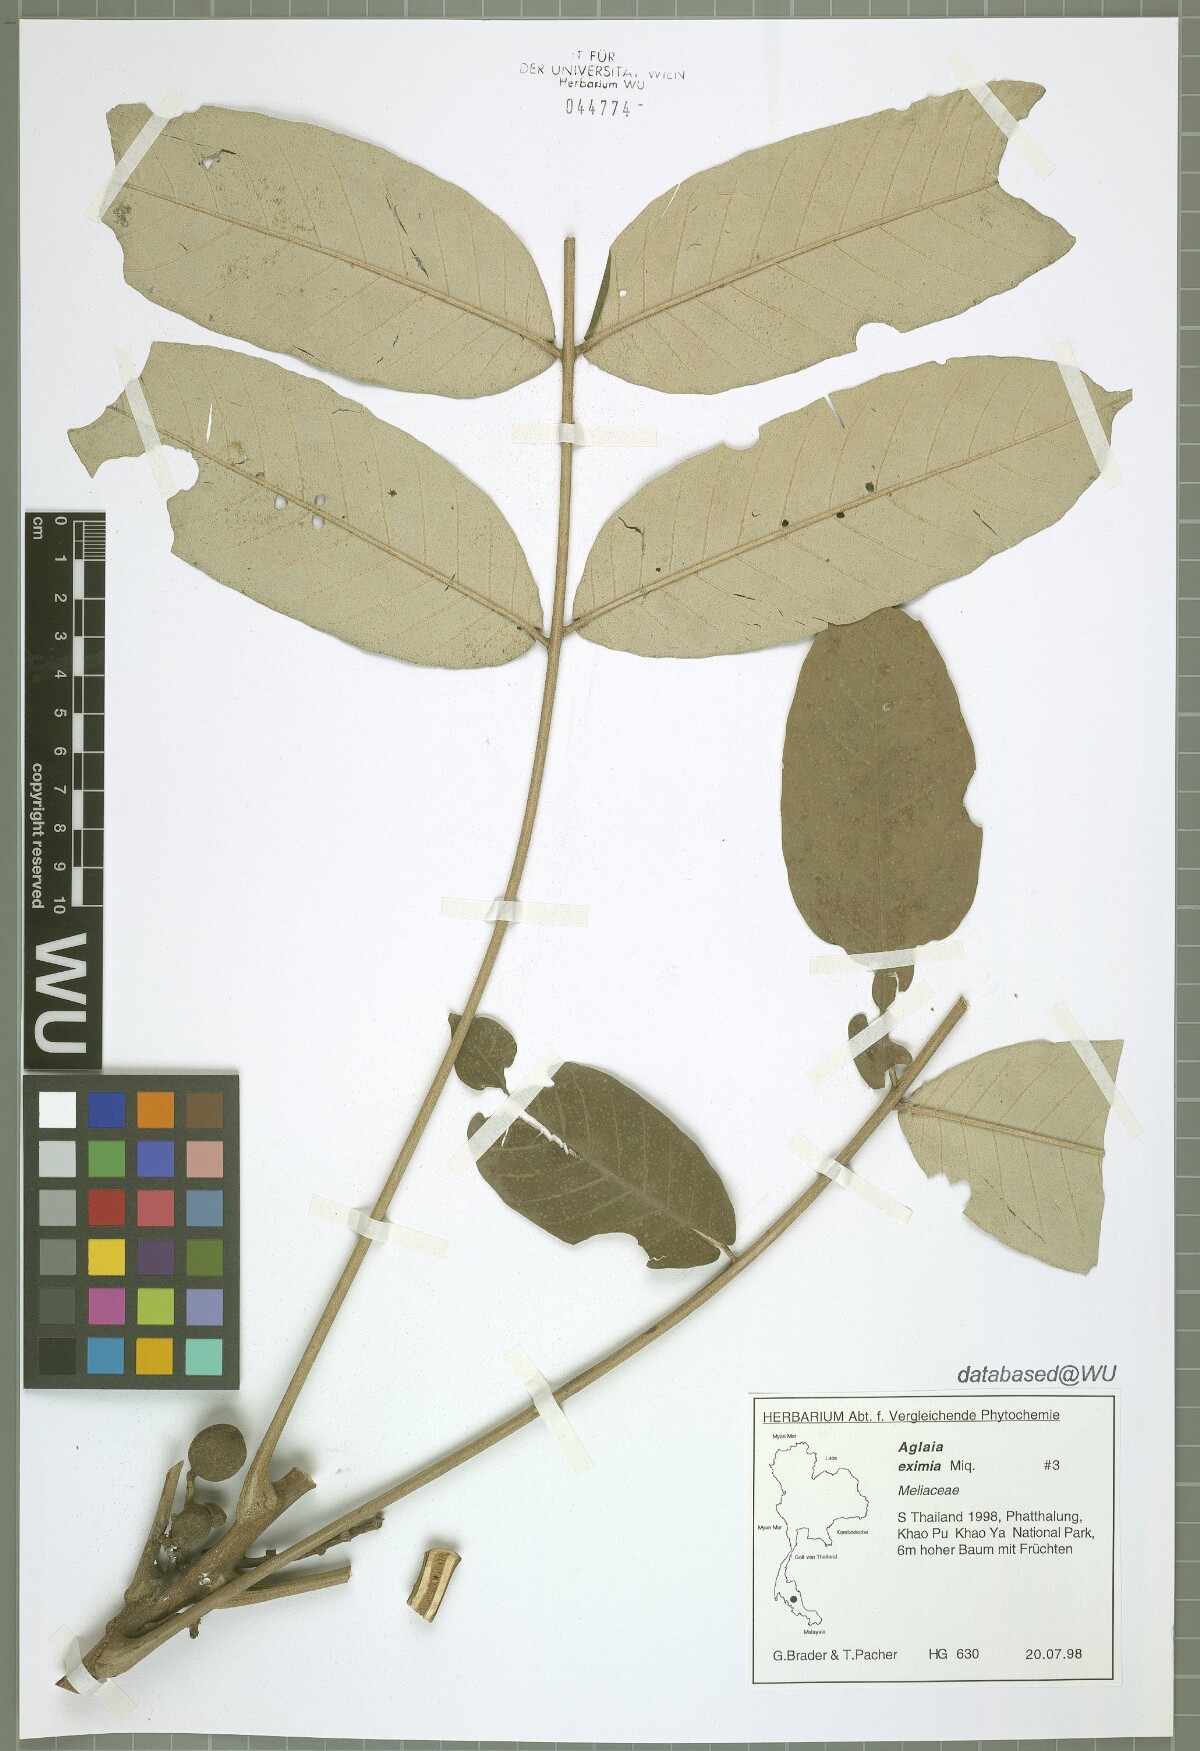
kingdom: Plantae
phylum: Tracheophyta
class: Magnoliopsida
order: Sapindales
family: Meliaceae
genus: Aglaia
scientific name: Aglaia eximia
